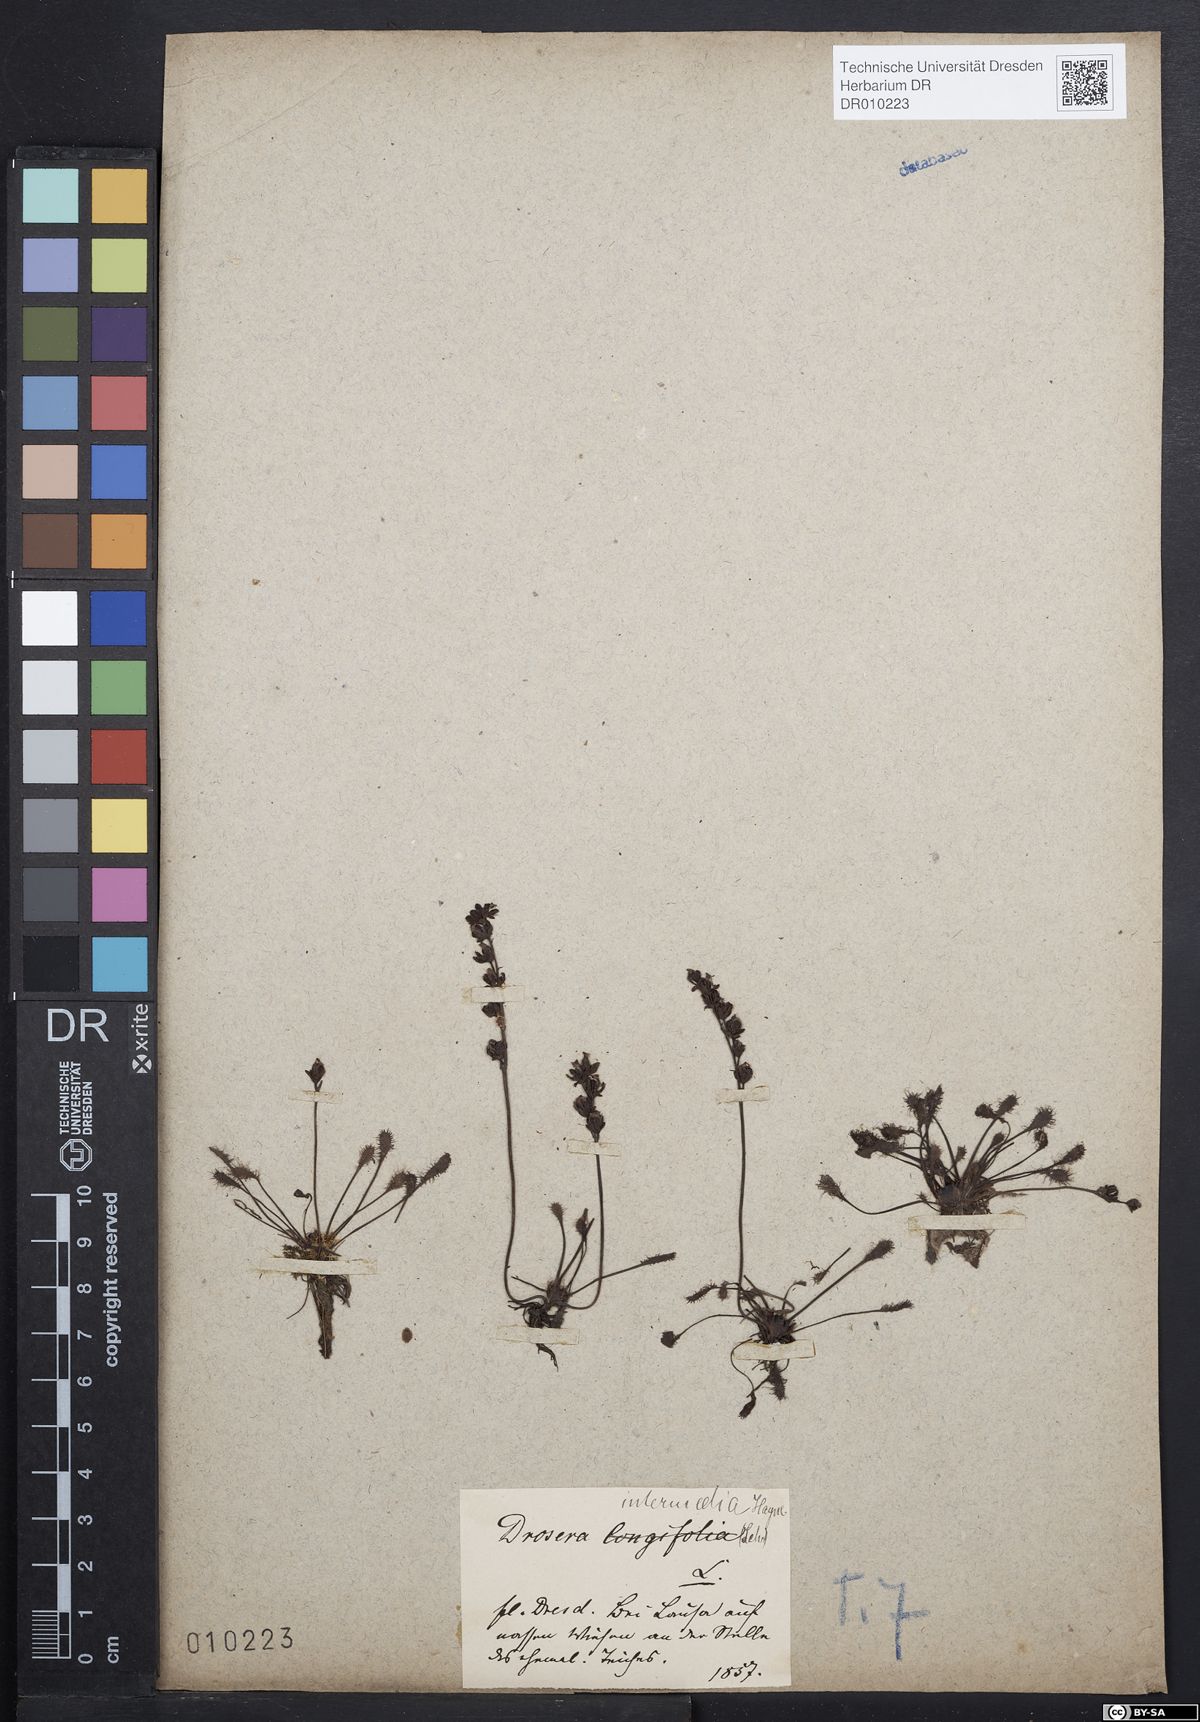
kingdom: Plantae
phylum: Tracheophyta
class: Magnoliopsida
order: Caryophyllales
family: Droseraceae
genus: Drosera
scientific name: Drosera intermedia
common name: Oblong-leaved sundew
